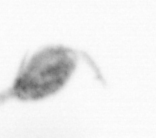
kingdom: Animalia
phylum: Arthropoda
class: Copepoda
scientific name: Copepoda
